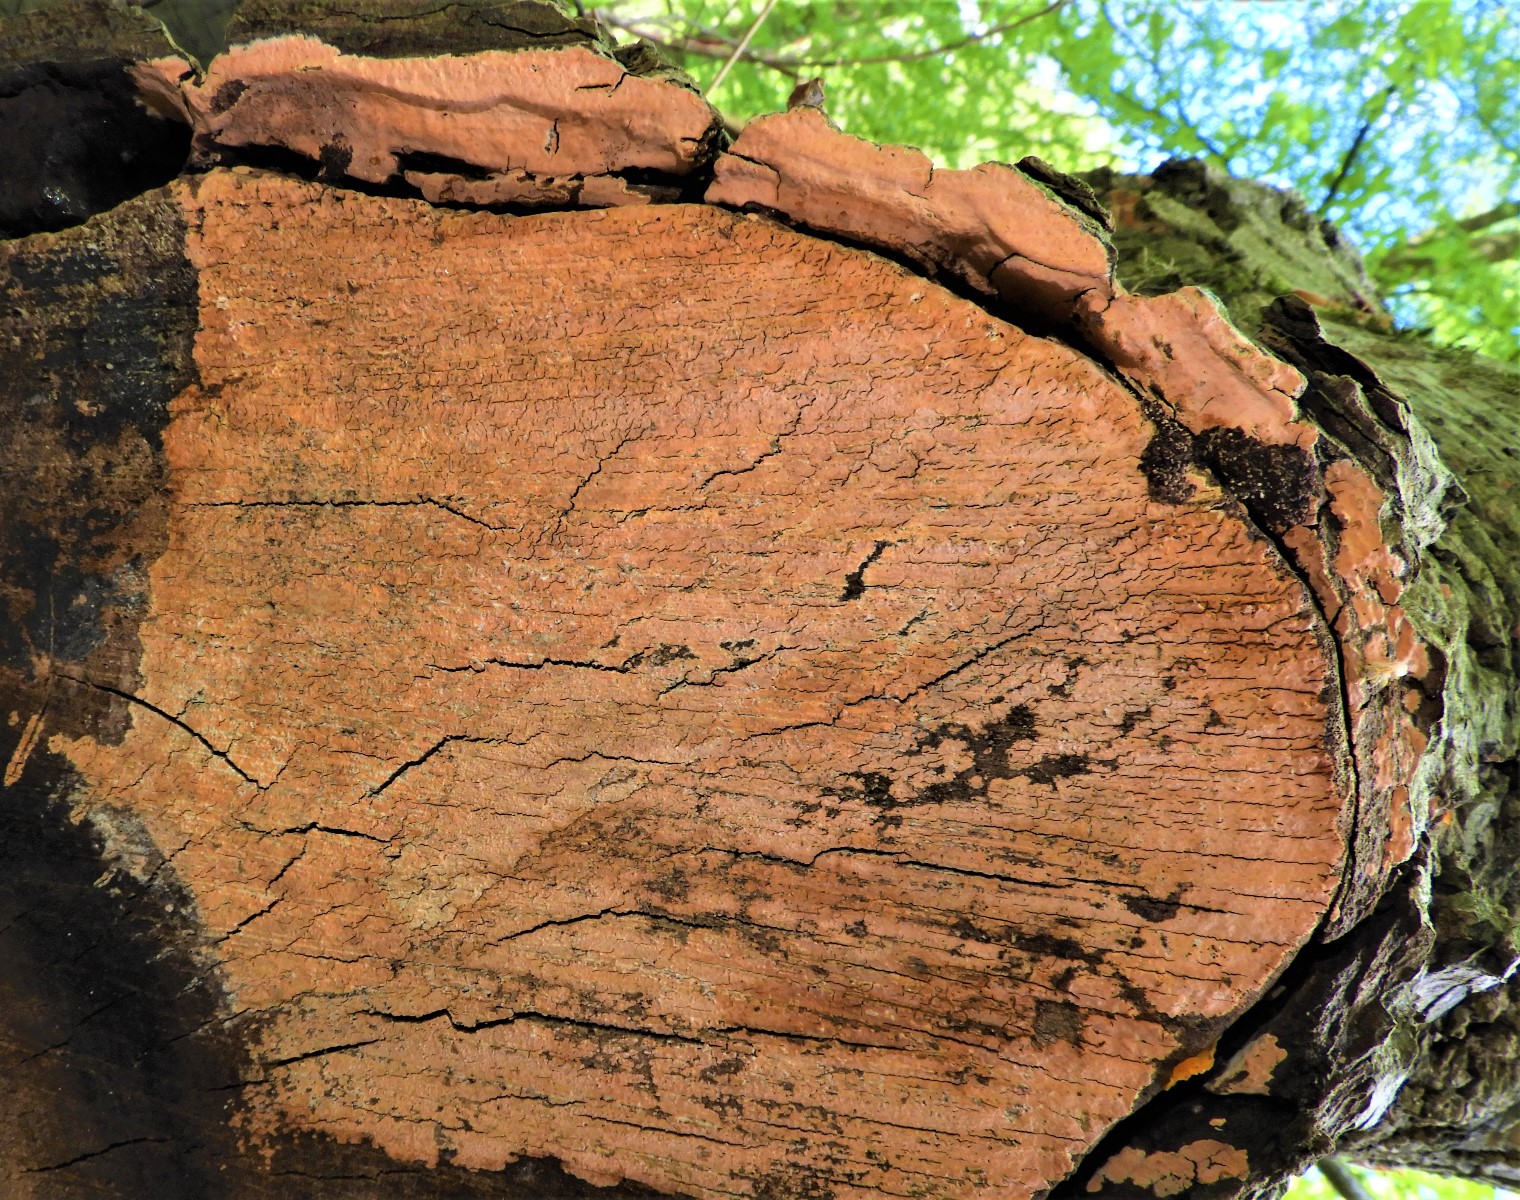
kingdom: Fungi
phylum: Basidiomycota
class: Agaricomycetes
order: Russulales
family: Peniophoraceae
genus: Peniophora
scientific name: Peniophora incarnata
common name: laksefarvet voksskind
